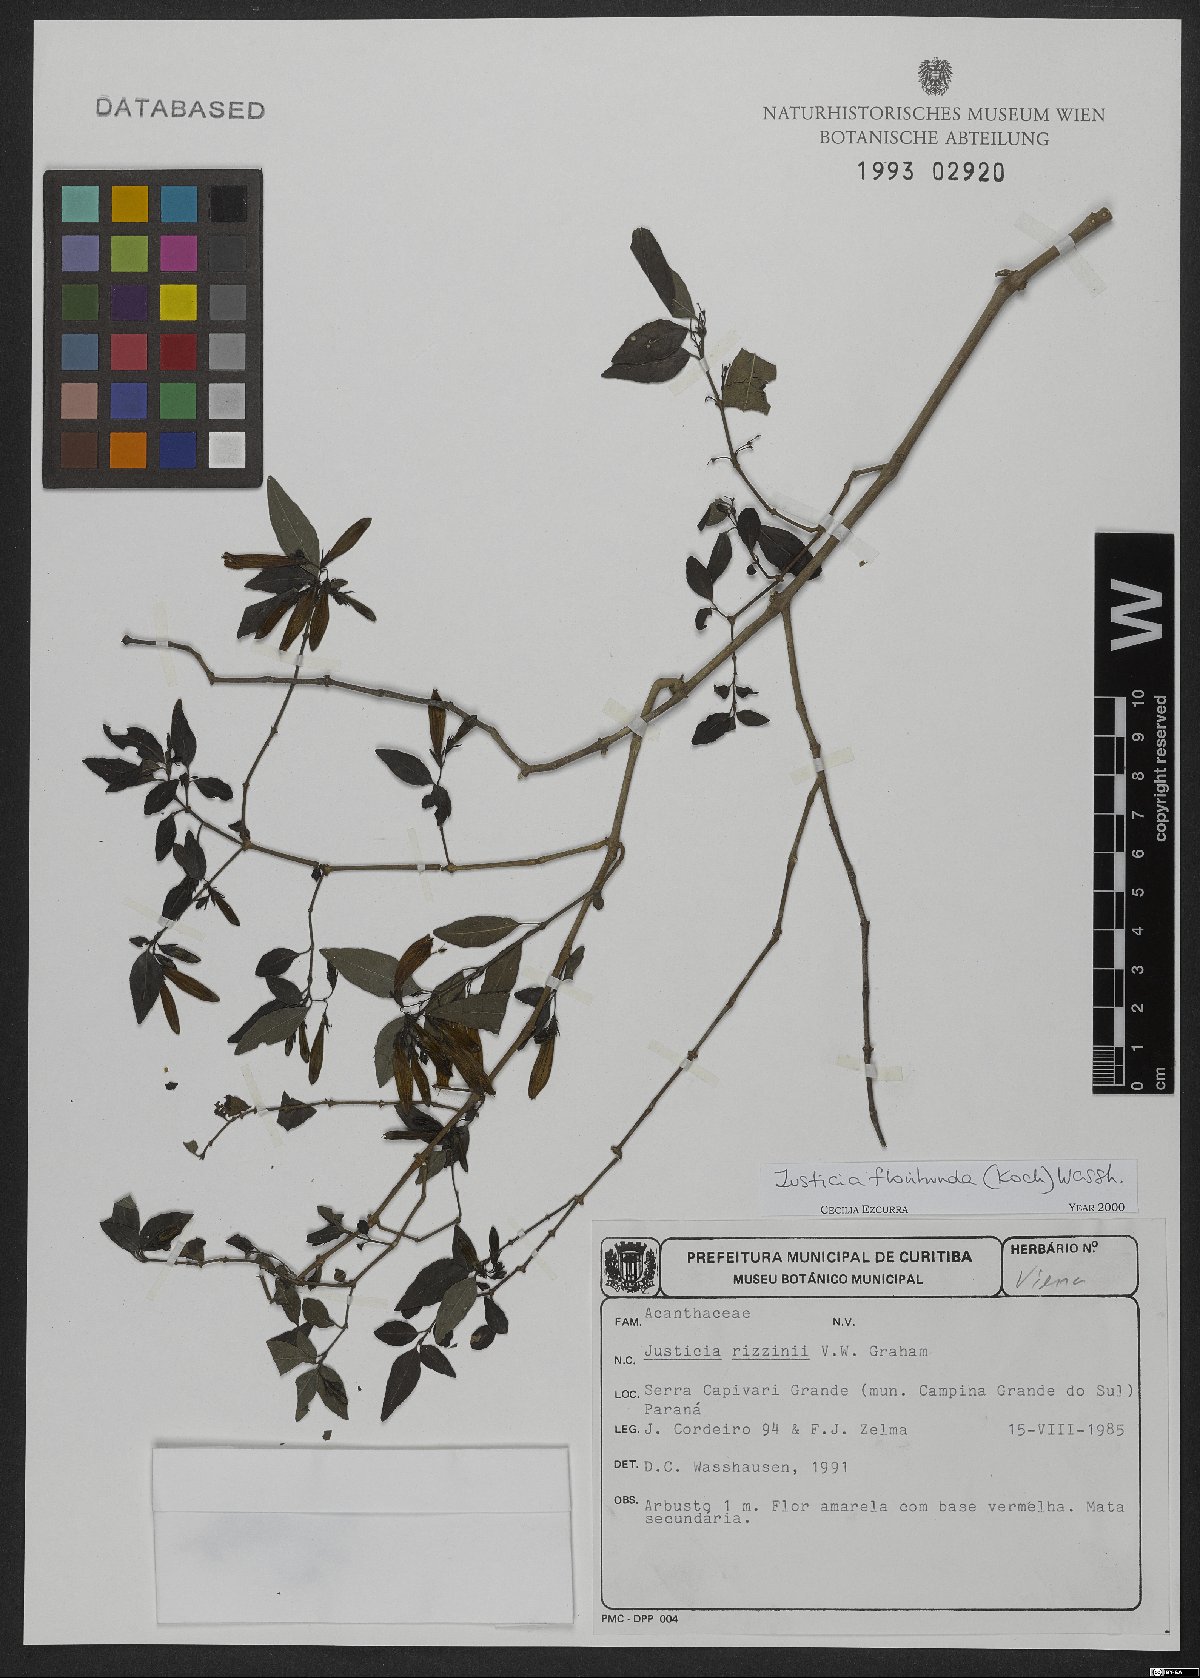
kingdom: Plantae
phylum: Tracheophyta
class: Magnoliopsida
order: Lamiales
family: Acanthaceae
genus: Justicia
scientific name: Justicia floribunda
